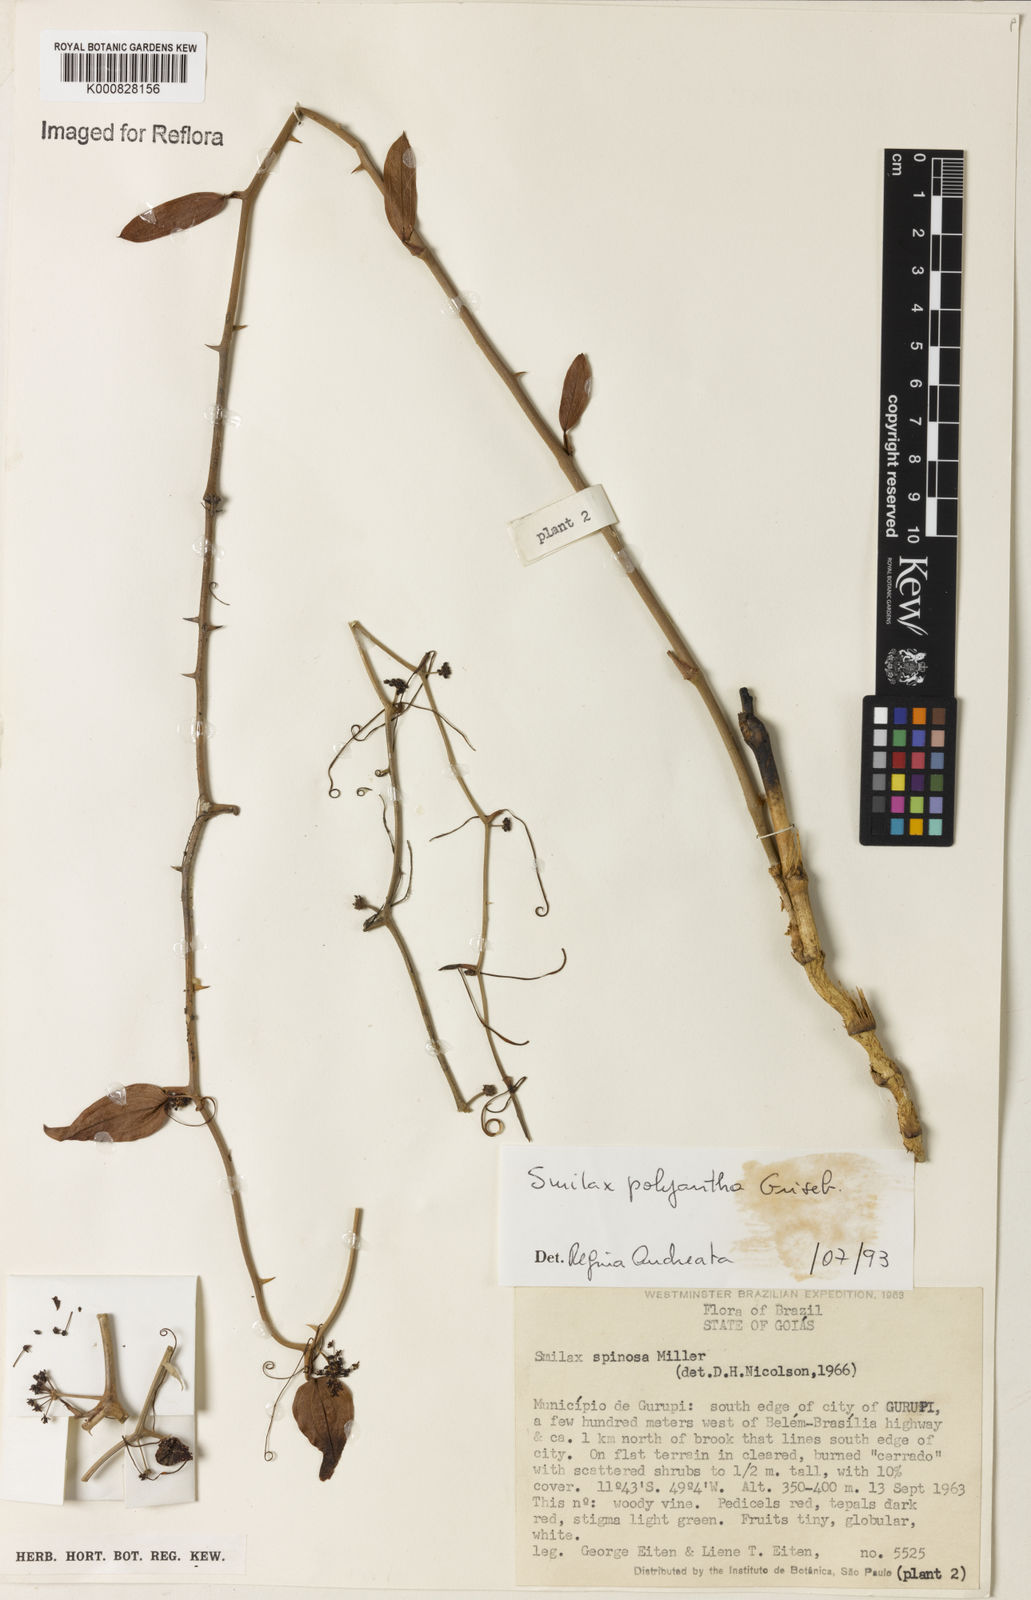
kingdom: Plantae
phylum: Tracheophyta
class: Liliopsida
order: Liliales
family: Smilacaceae
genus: Smilax
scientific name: Smilax polyantha
